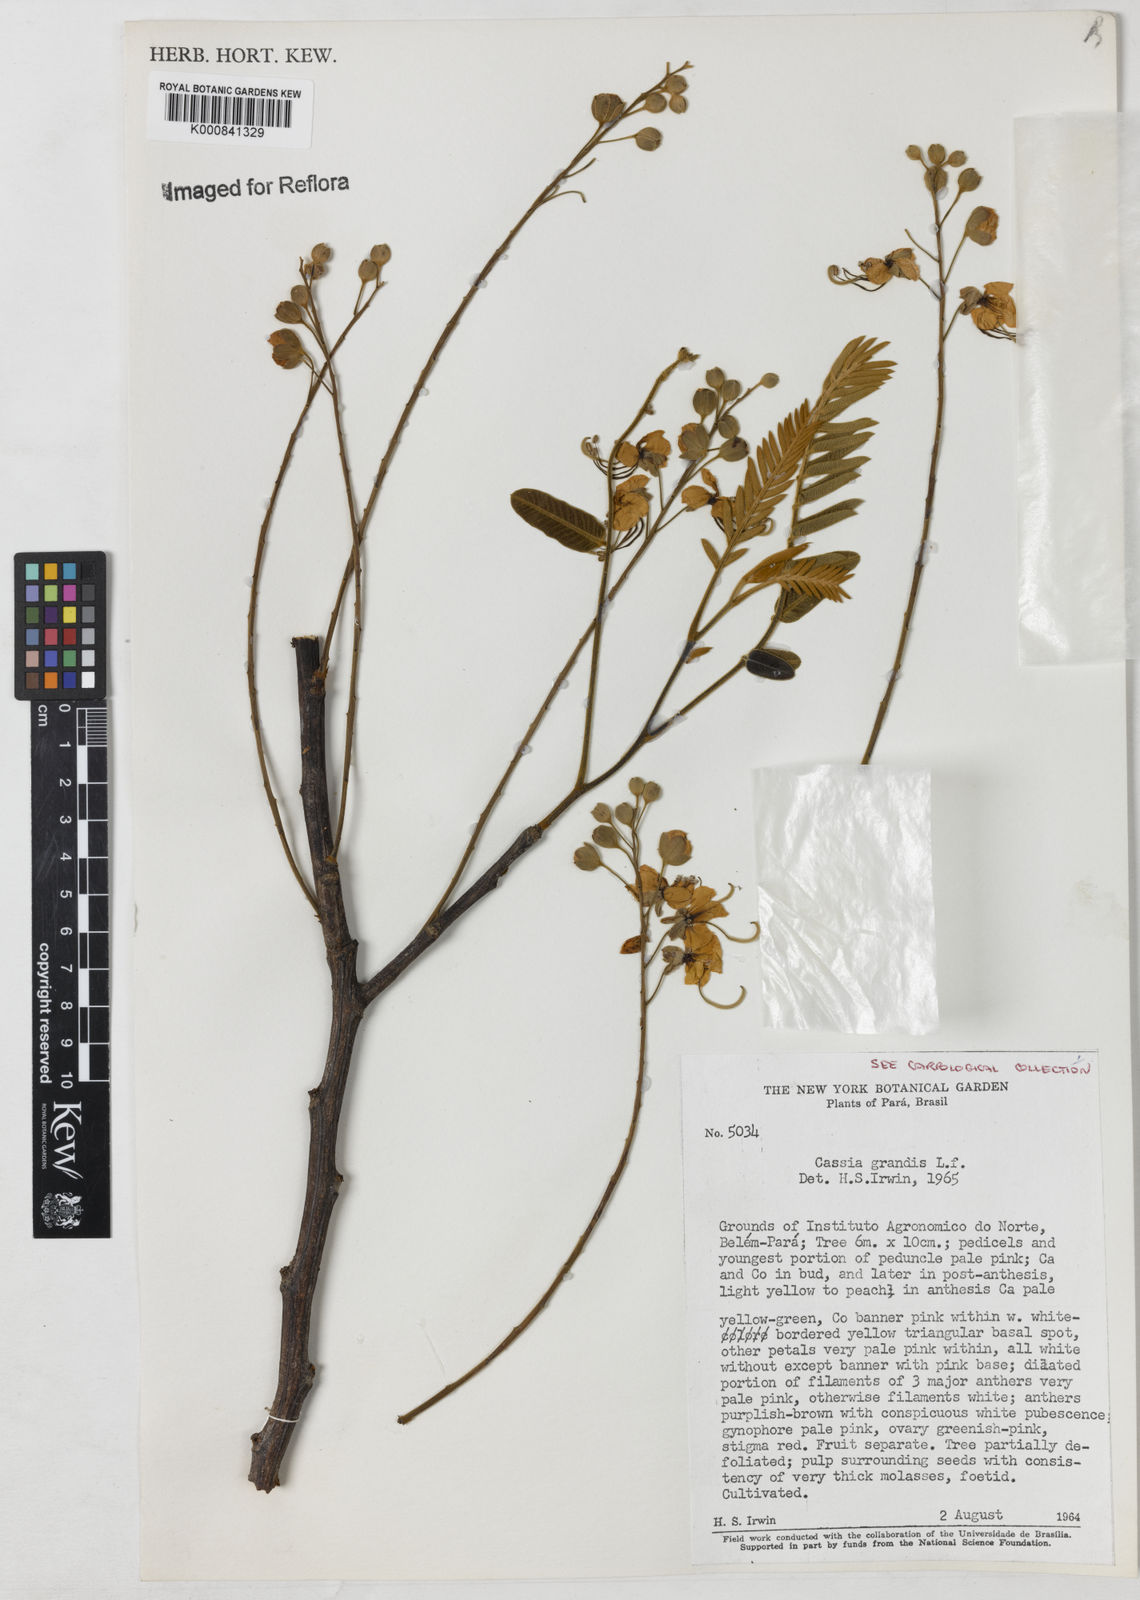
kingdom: Plantae
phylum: Tracheophyta
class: Magnoliopsida
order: Fabales
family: Fabaceae
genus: Cassia
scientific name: Cassia grandis
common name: Appleblossom cassia
